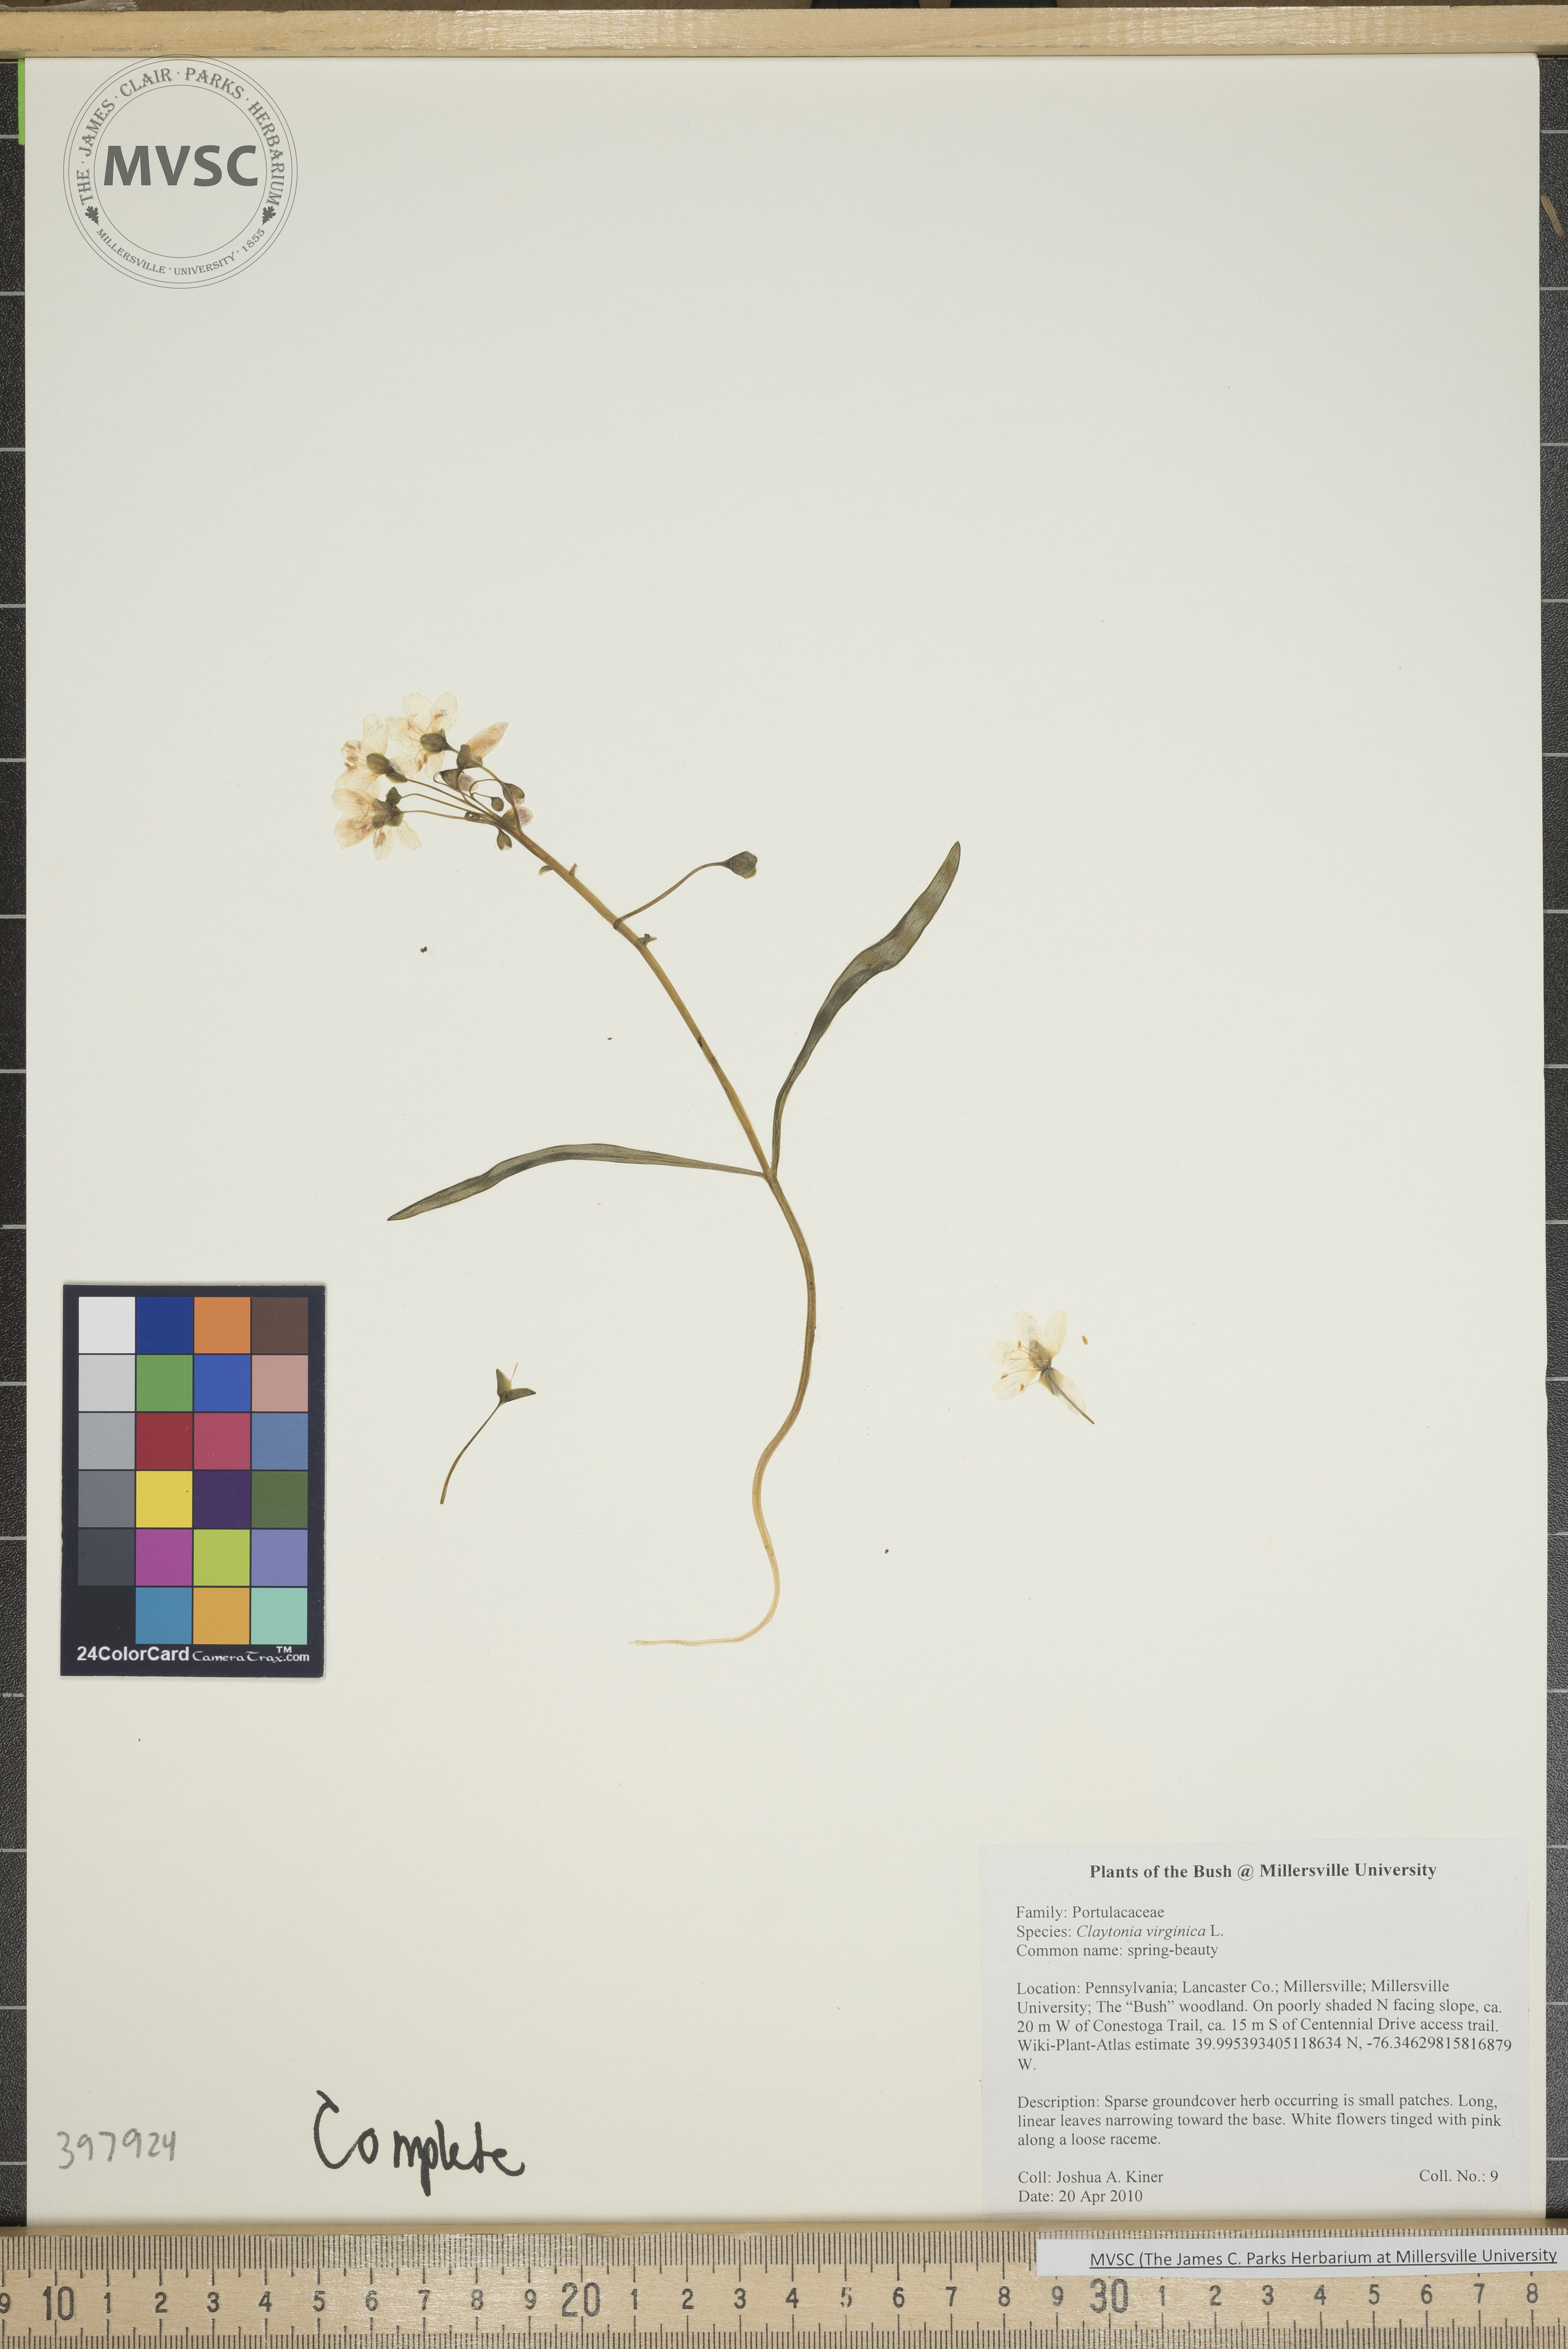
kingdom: Plantae
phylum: Tracheophyta
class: Magnoliopsida
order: Caryophyllales
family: Montiaceae
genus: Claytonia
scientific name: Claytonia virginica
